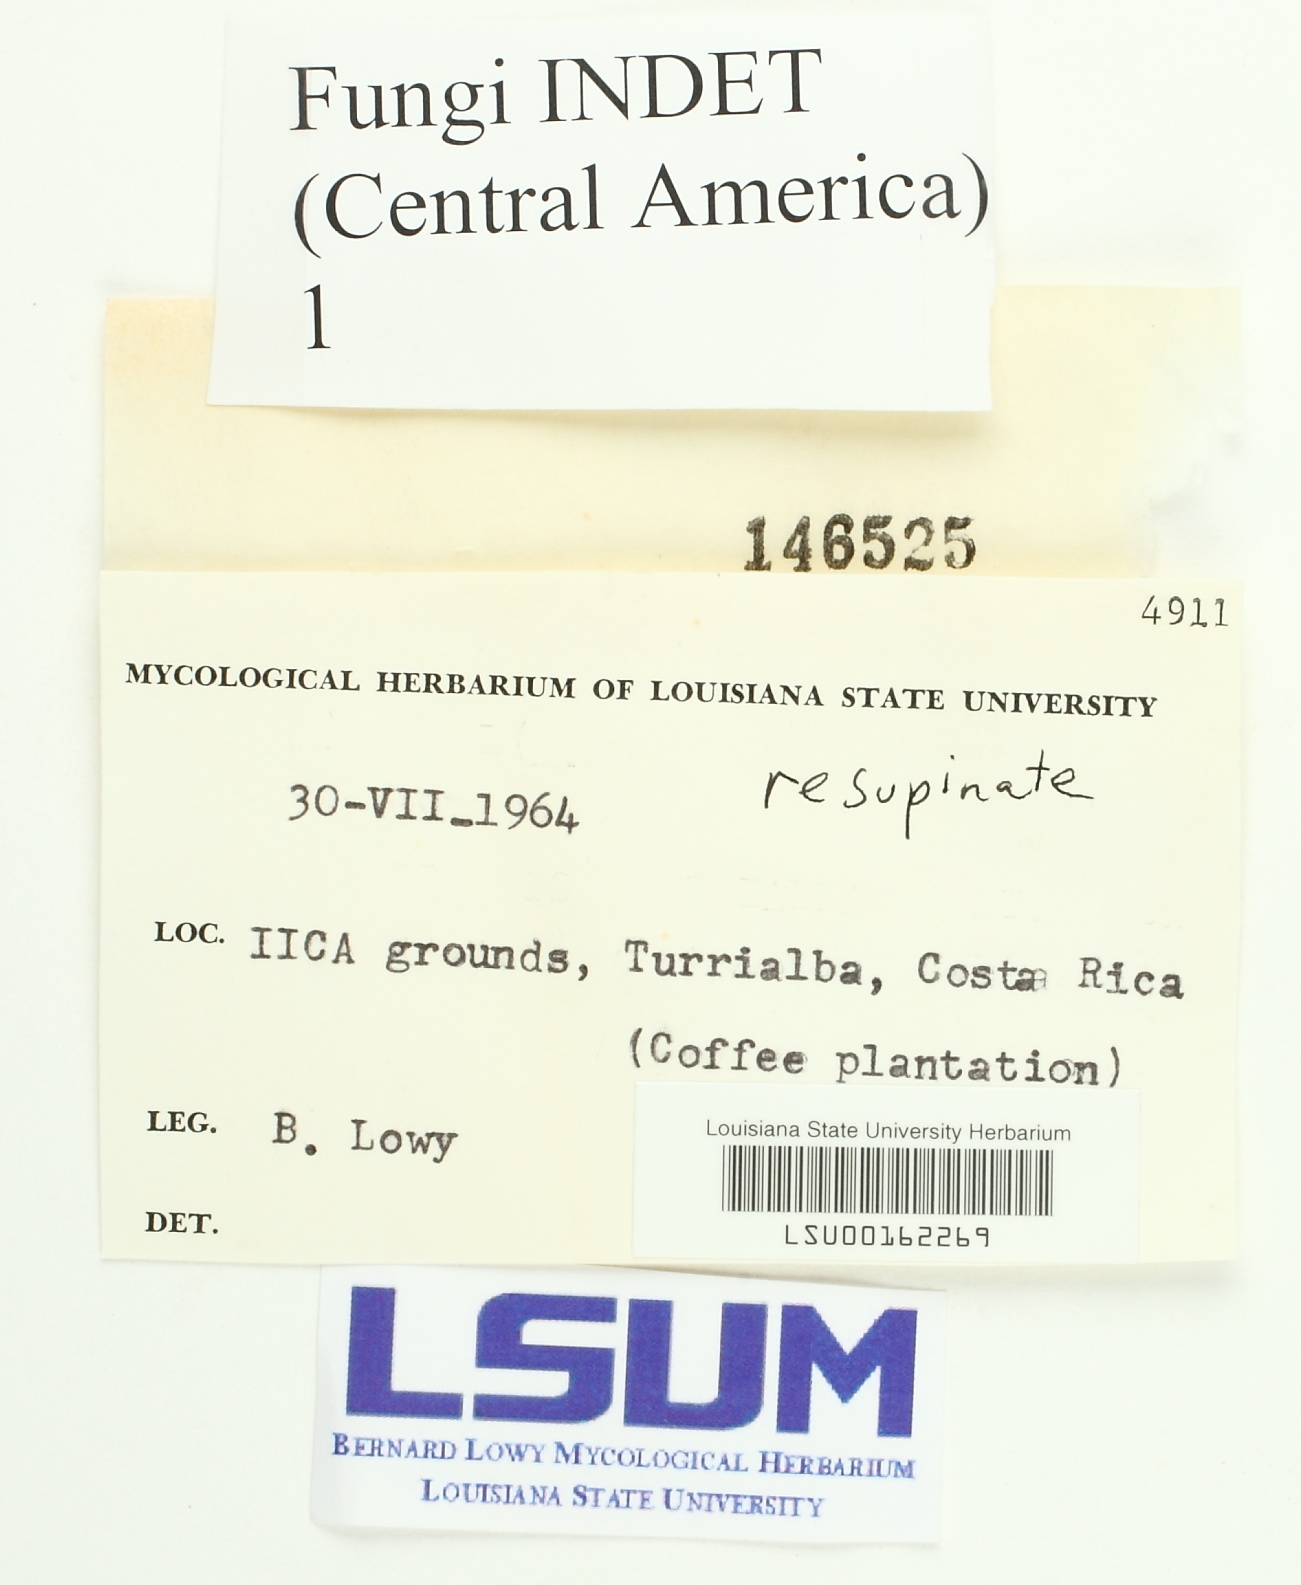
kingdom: Fungi
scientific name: Fungi
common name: Fungi
